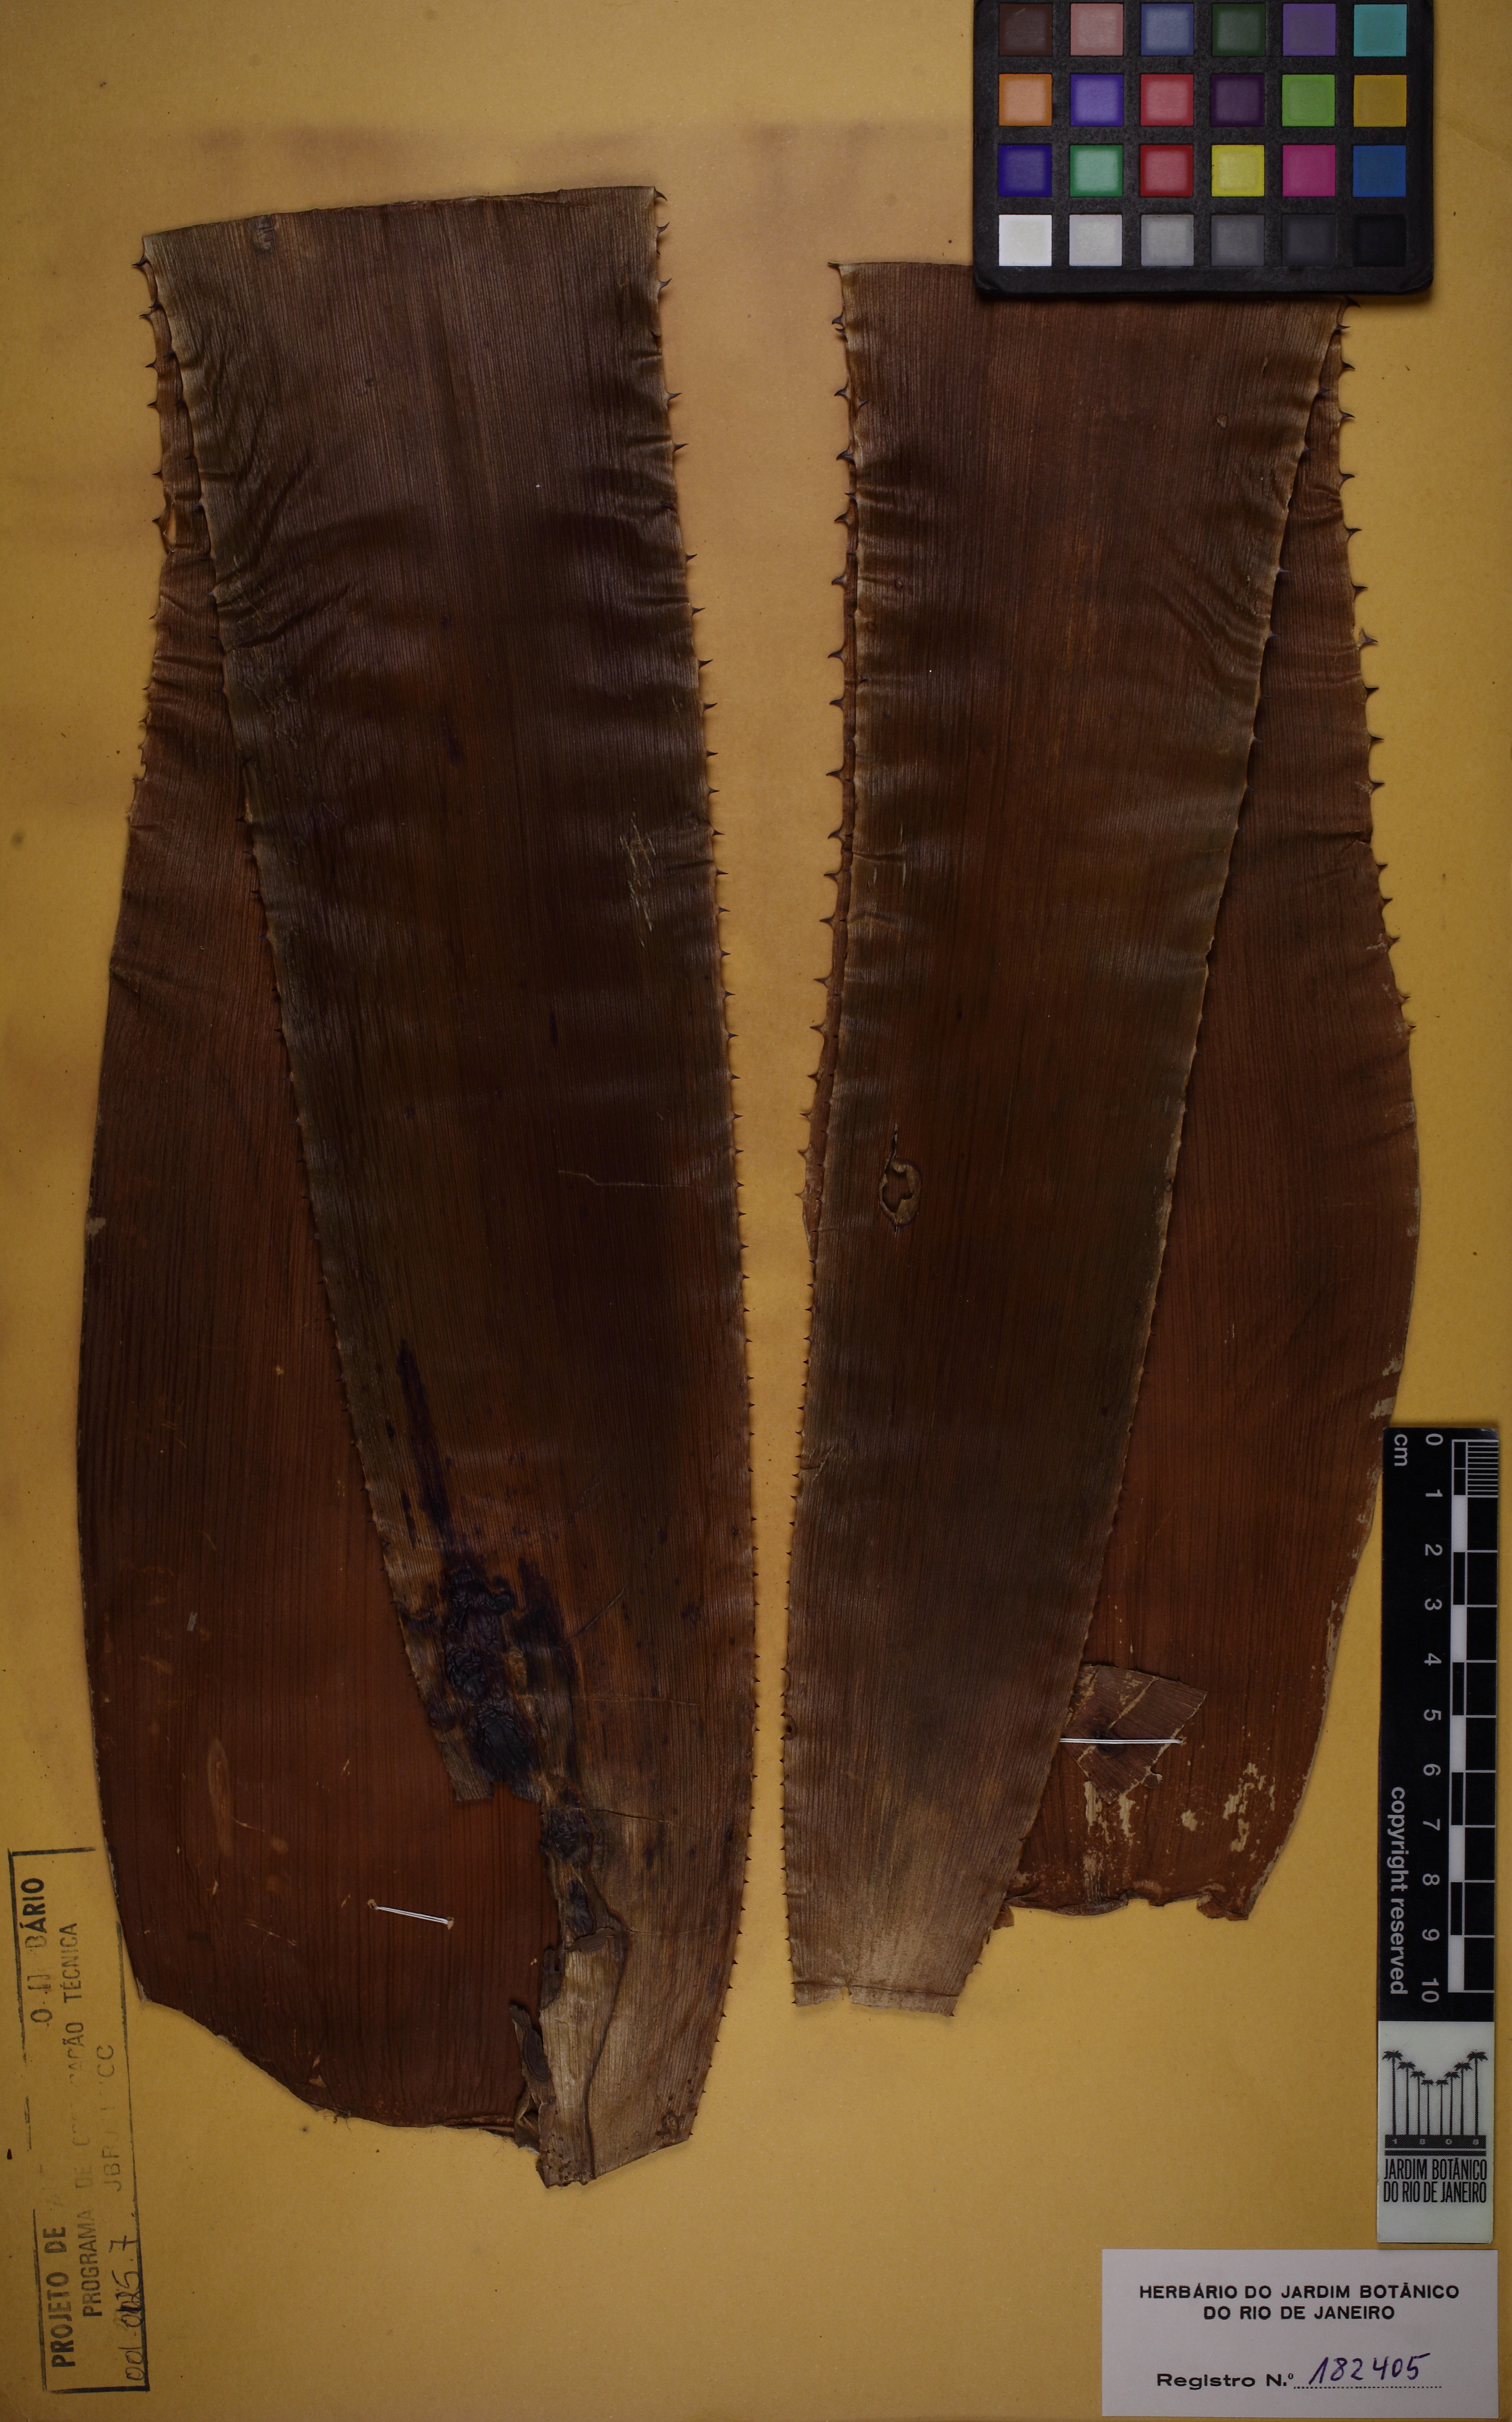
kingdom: Plantae
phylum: Tracheophyta
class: Liliopsida
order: Poales
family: Bromeliaceae
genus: Aechmea
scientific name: Aechmea pectinata
